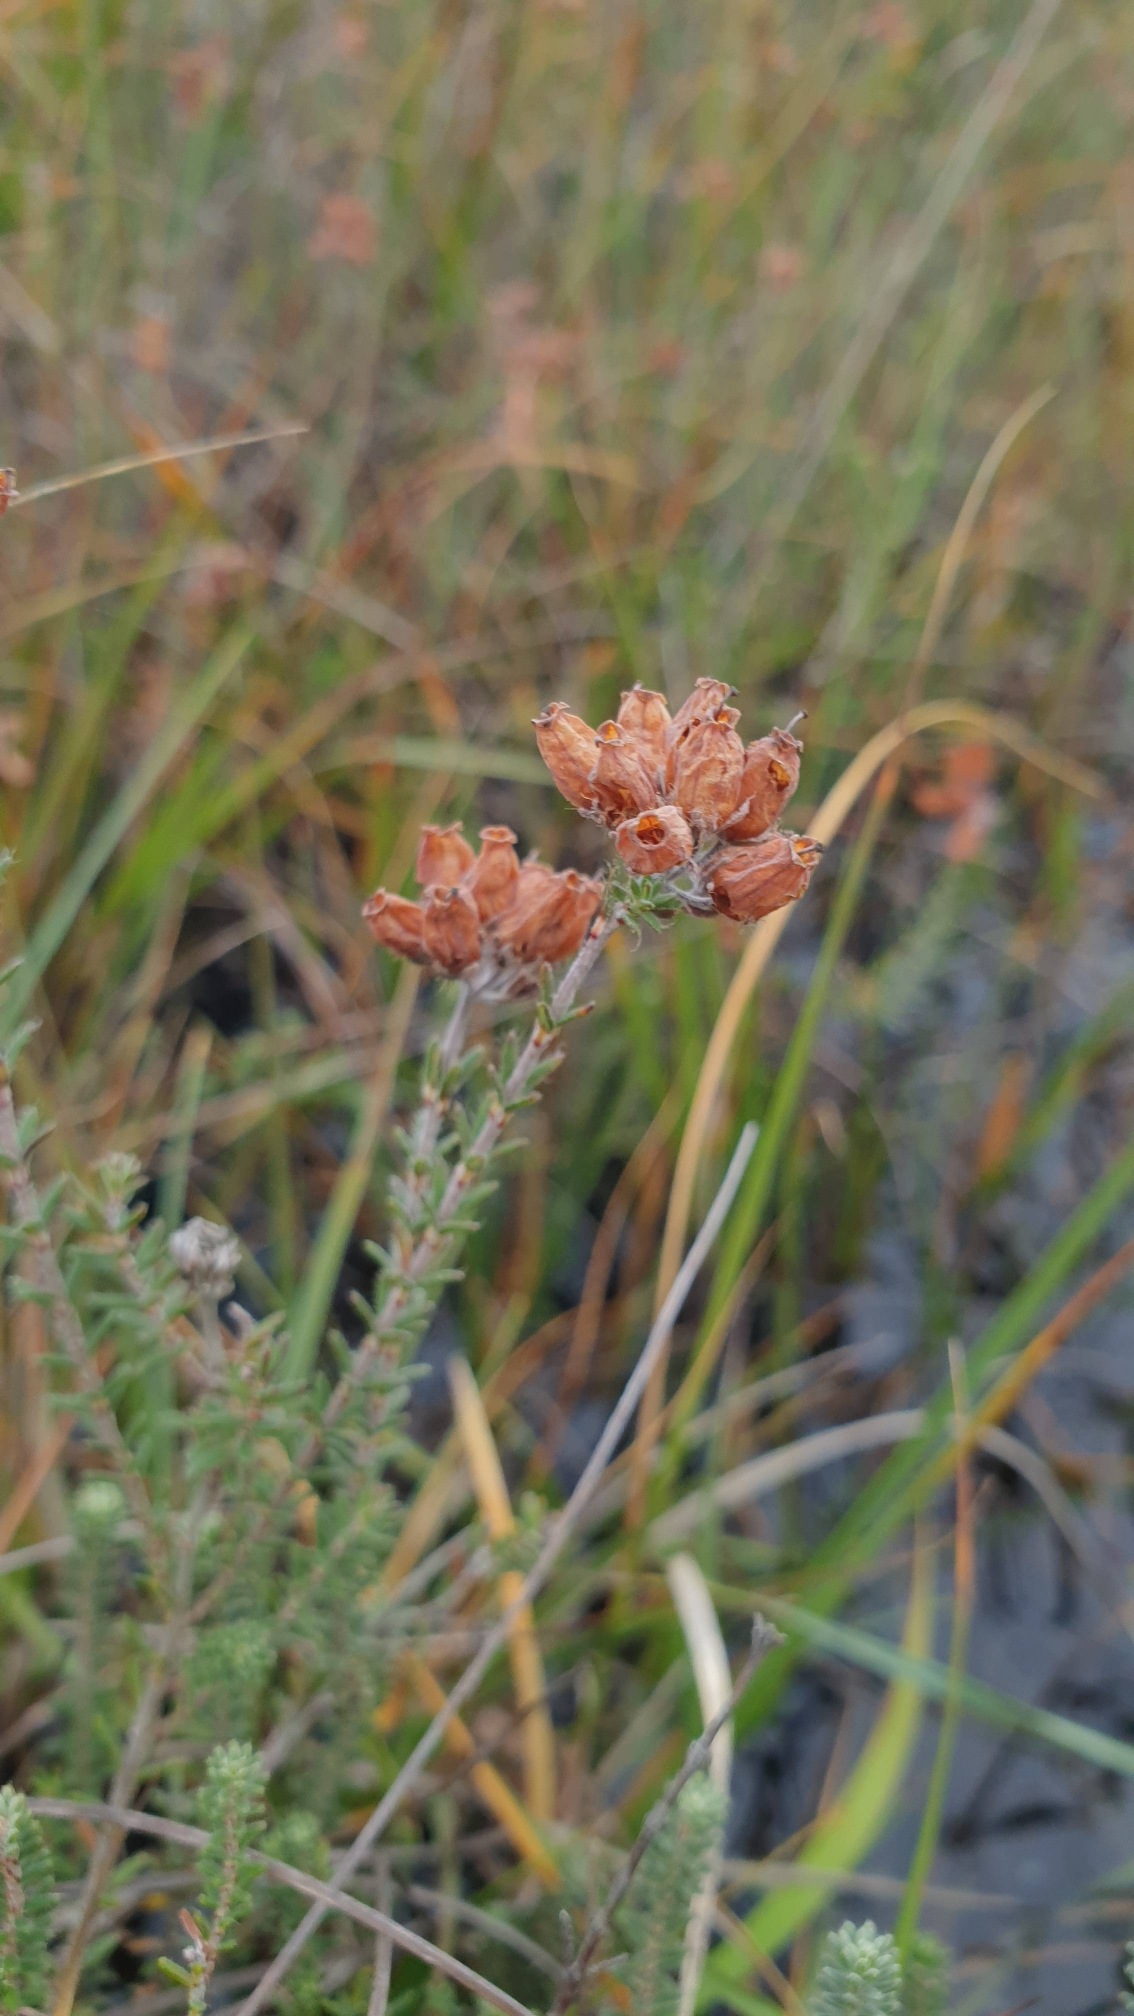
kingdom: Plantae
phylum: Tracheophyta
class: Magnoliopsida
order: Ericales
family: Ericaceae
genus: Erica
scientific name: Erica tetralix
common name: Klokkelyng
